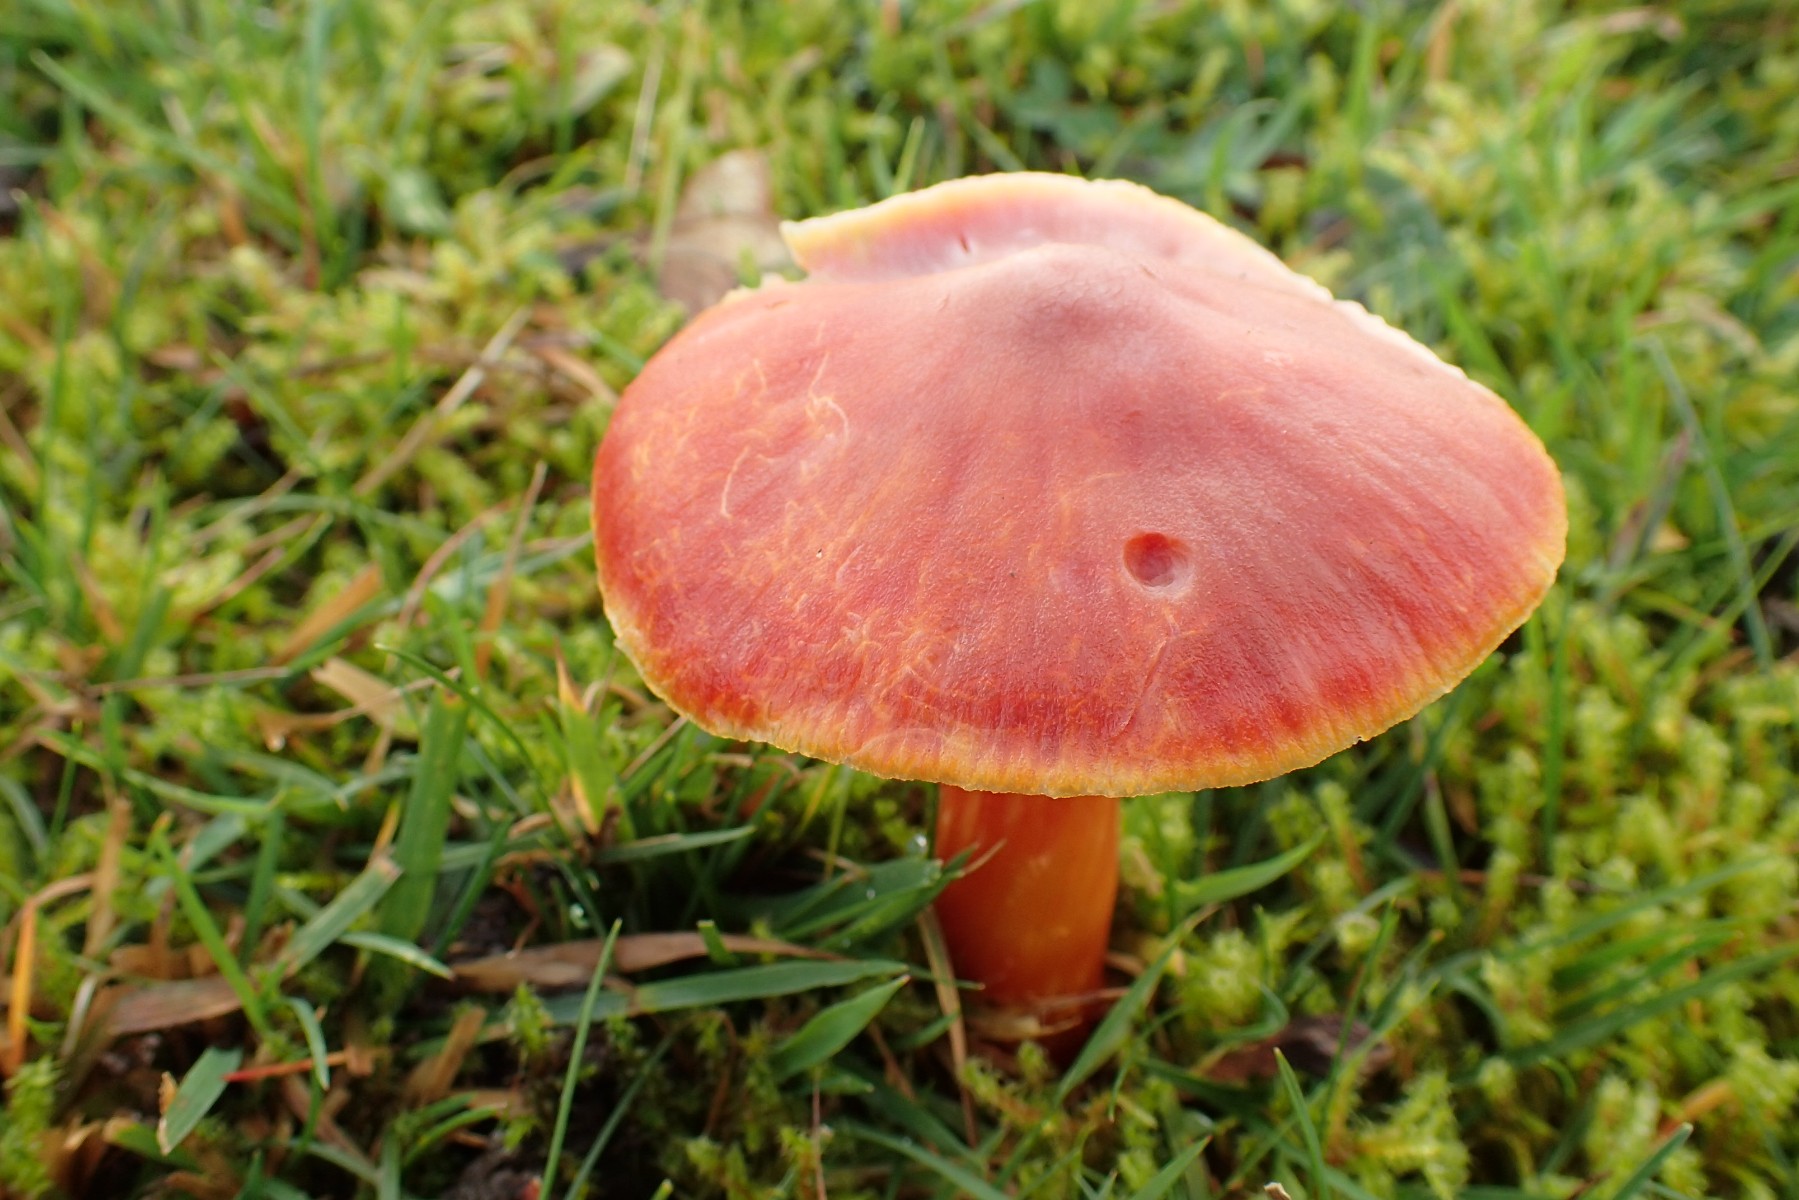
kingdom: Fungi
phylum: Basidiomycota
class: Agaricomycetes
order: Agaricales
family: Hygrophoraceae
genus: Hygrocybe
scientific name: Hygrocybe punicea
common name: skarlagen-vokshat
